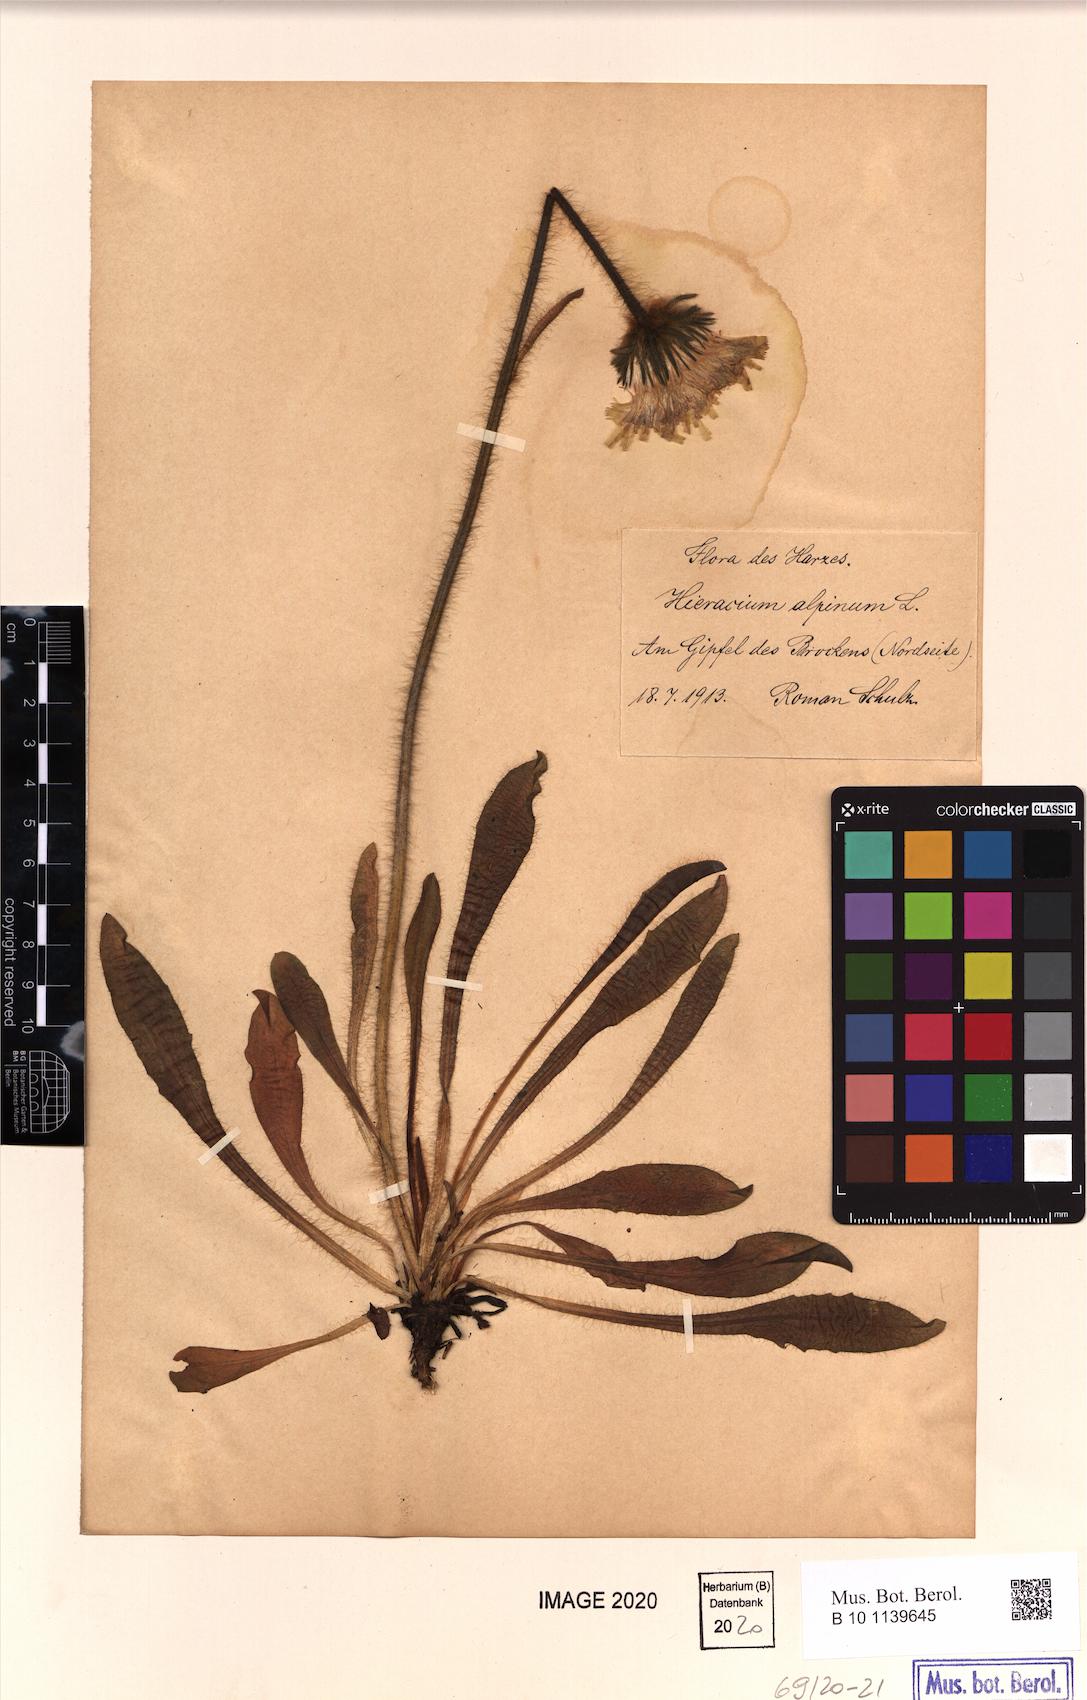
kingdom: Plantae
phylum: Tracheophyta
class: Magnoliopsida
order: Asterales
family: Asteraceae
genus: Hieracium
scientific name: Hieracium alpinum
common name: Alpine hawkweed
